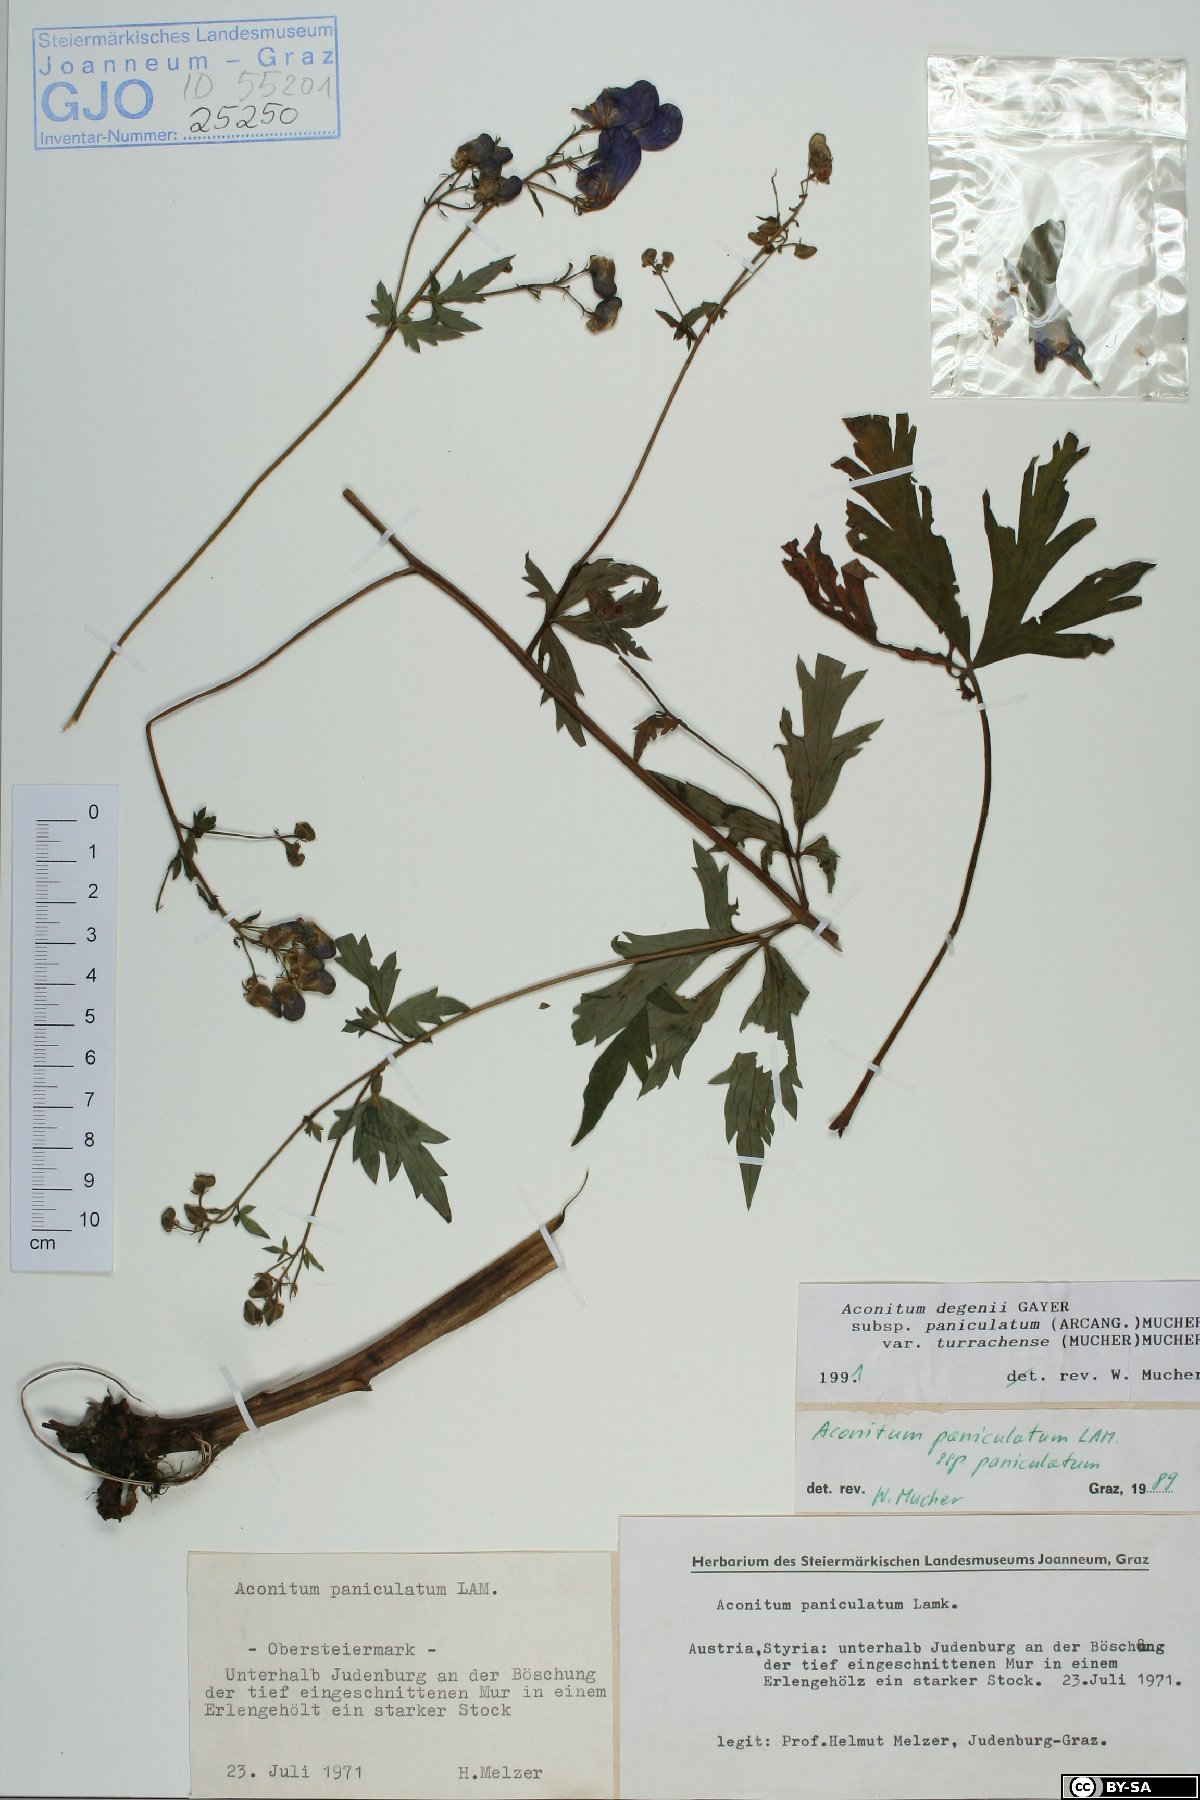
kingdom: Plantae
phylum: Tracheophyta
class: Magnoliopsida
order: Ranunculales
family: Ranunculaceae
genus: Aconitum
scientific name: Aconitum degenii
